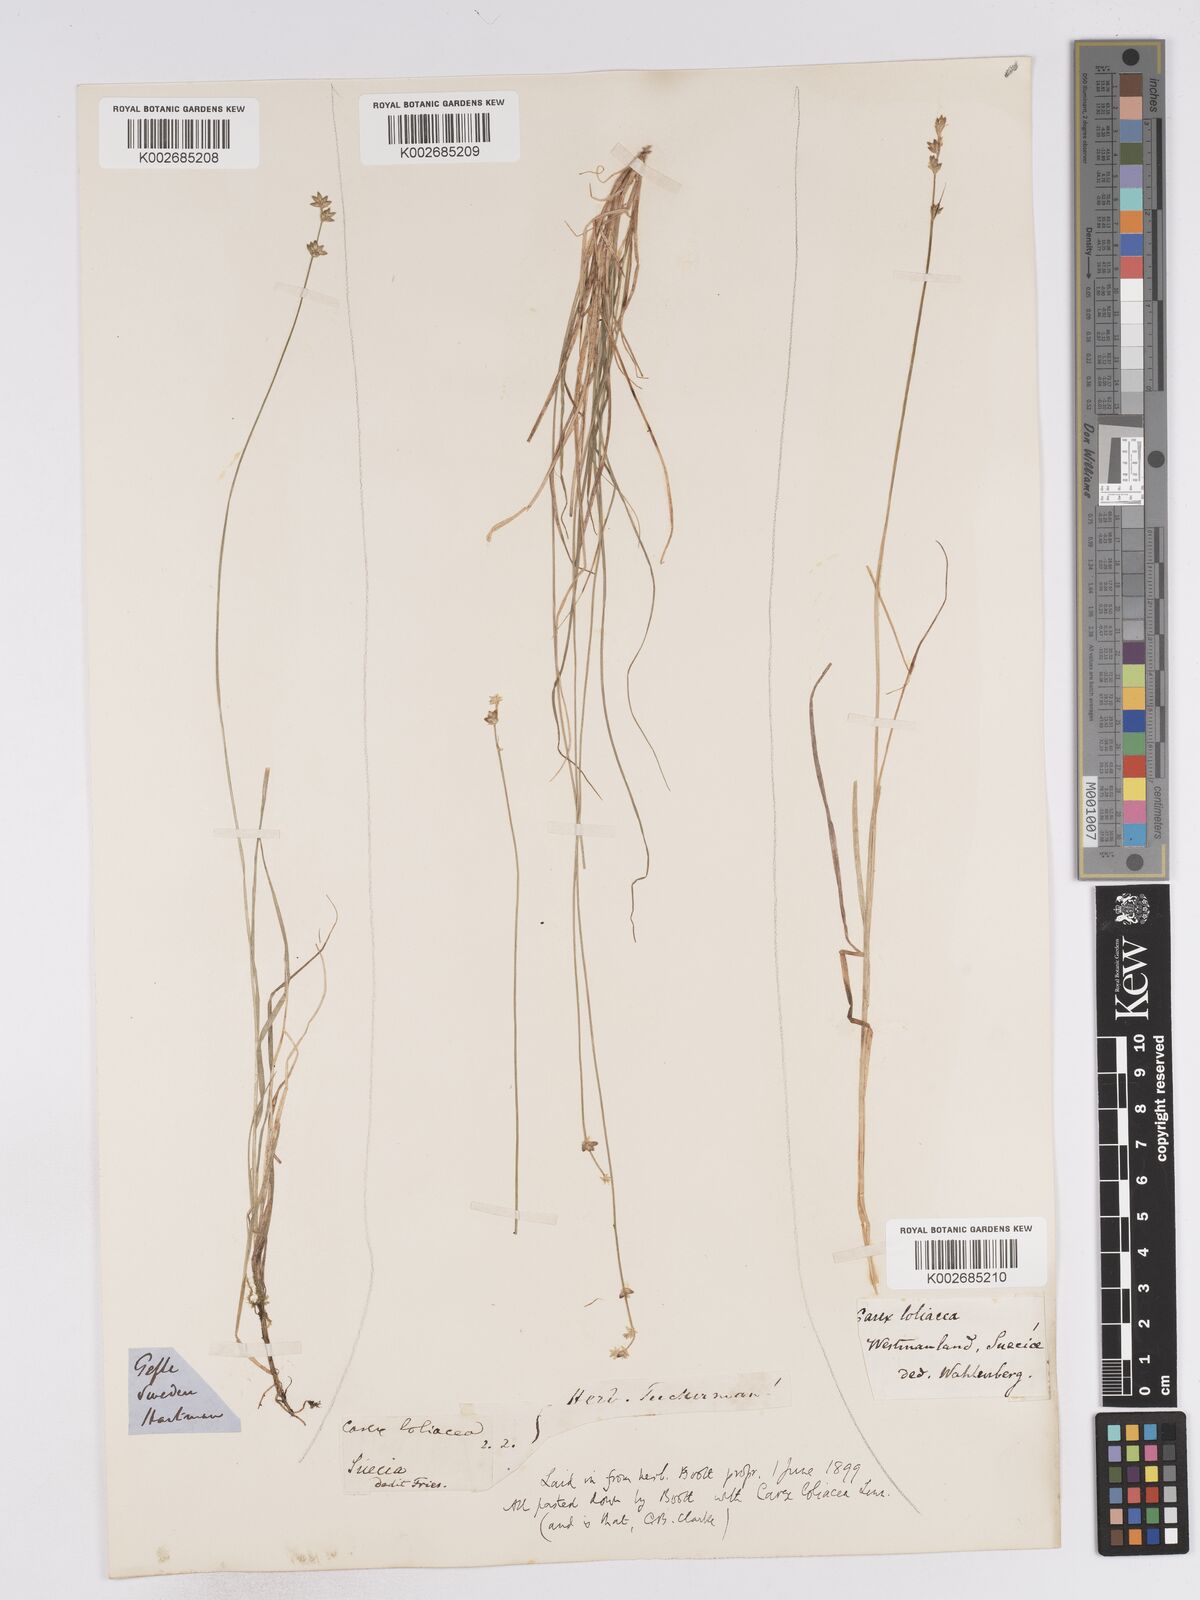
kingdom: Plantae
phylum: Tracheophyta
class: Liliopsida
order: Poales
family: Cyperaceae
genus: Carex
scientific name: Carex loliacea
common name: Ryegrass sedge
